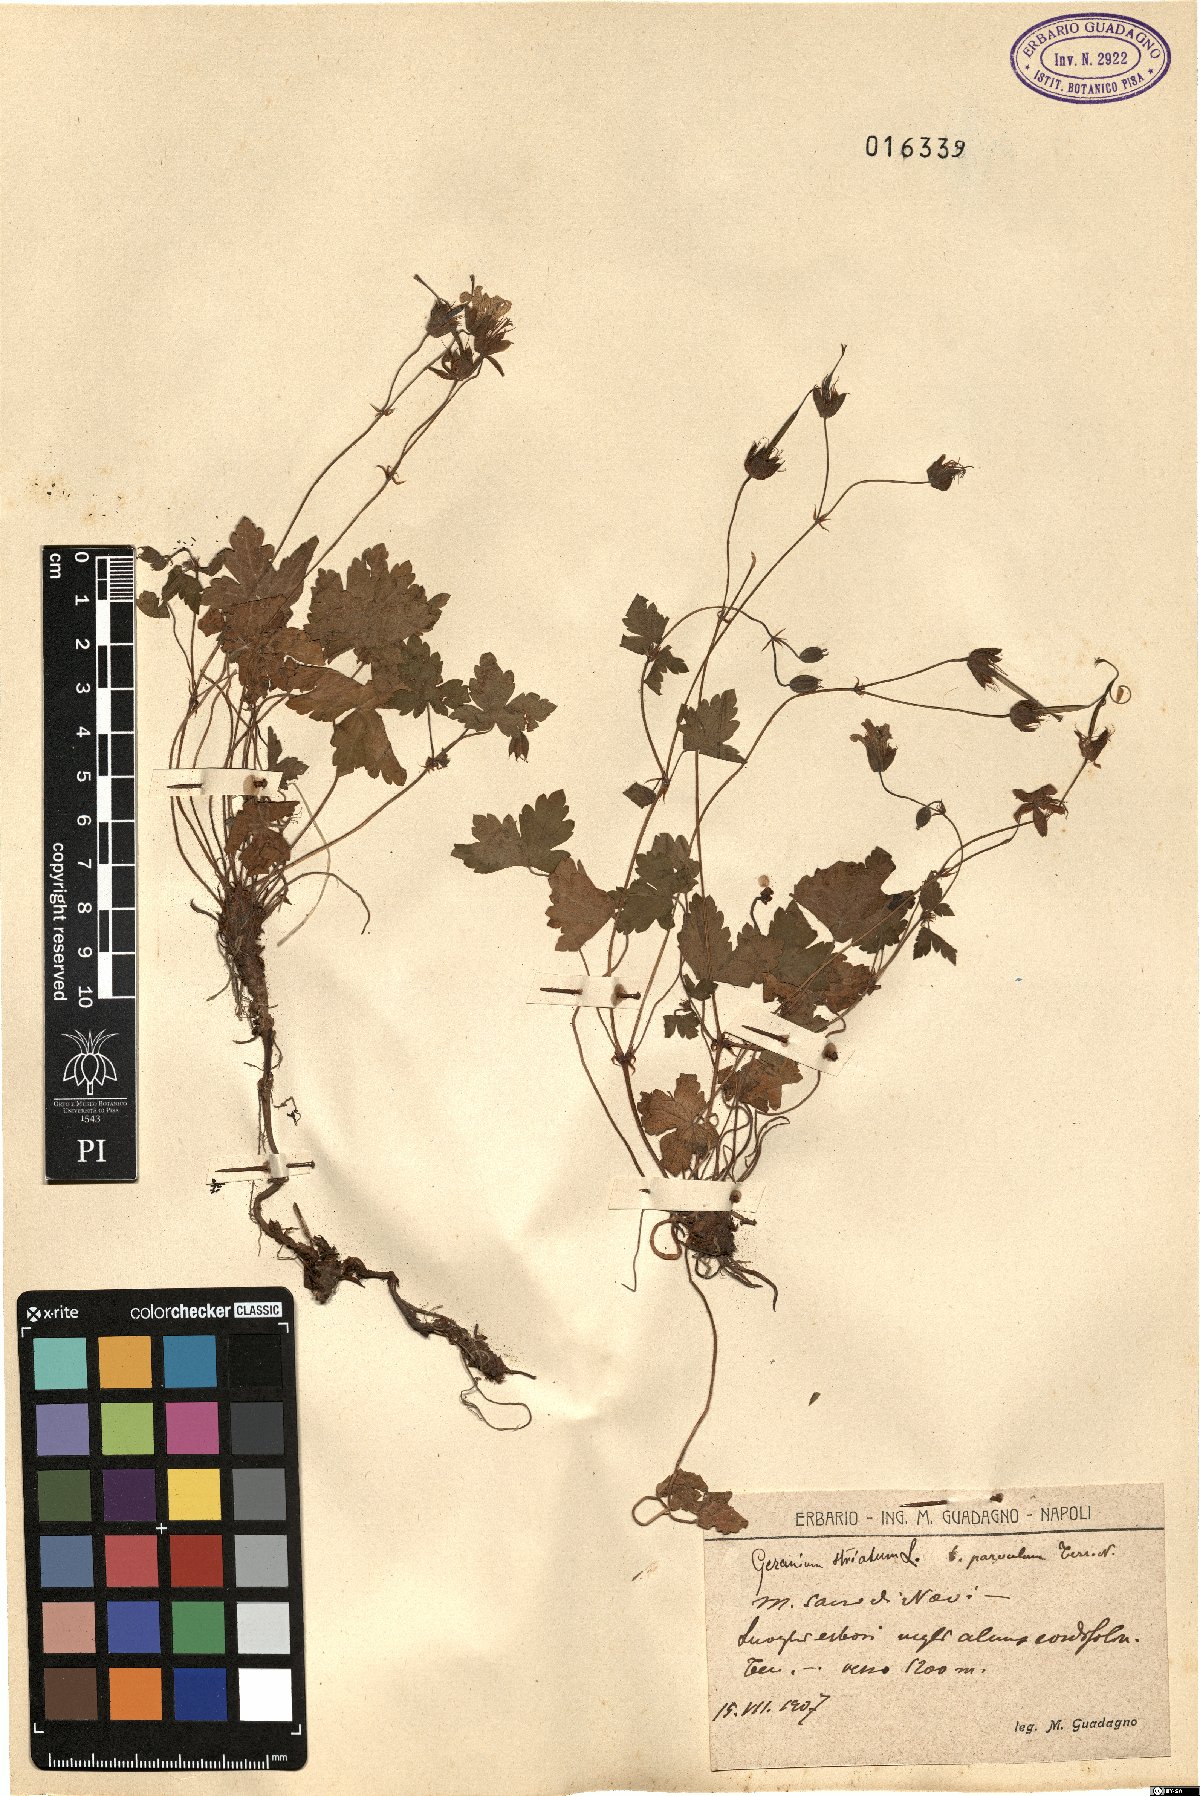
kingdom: Plantae
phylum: Tracheophyta
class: Magnoliopsida
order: Geraniales
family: Geraniaceae
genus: Geranium
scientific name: Geranium versicolor
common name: Pencilled crane's-bill
